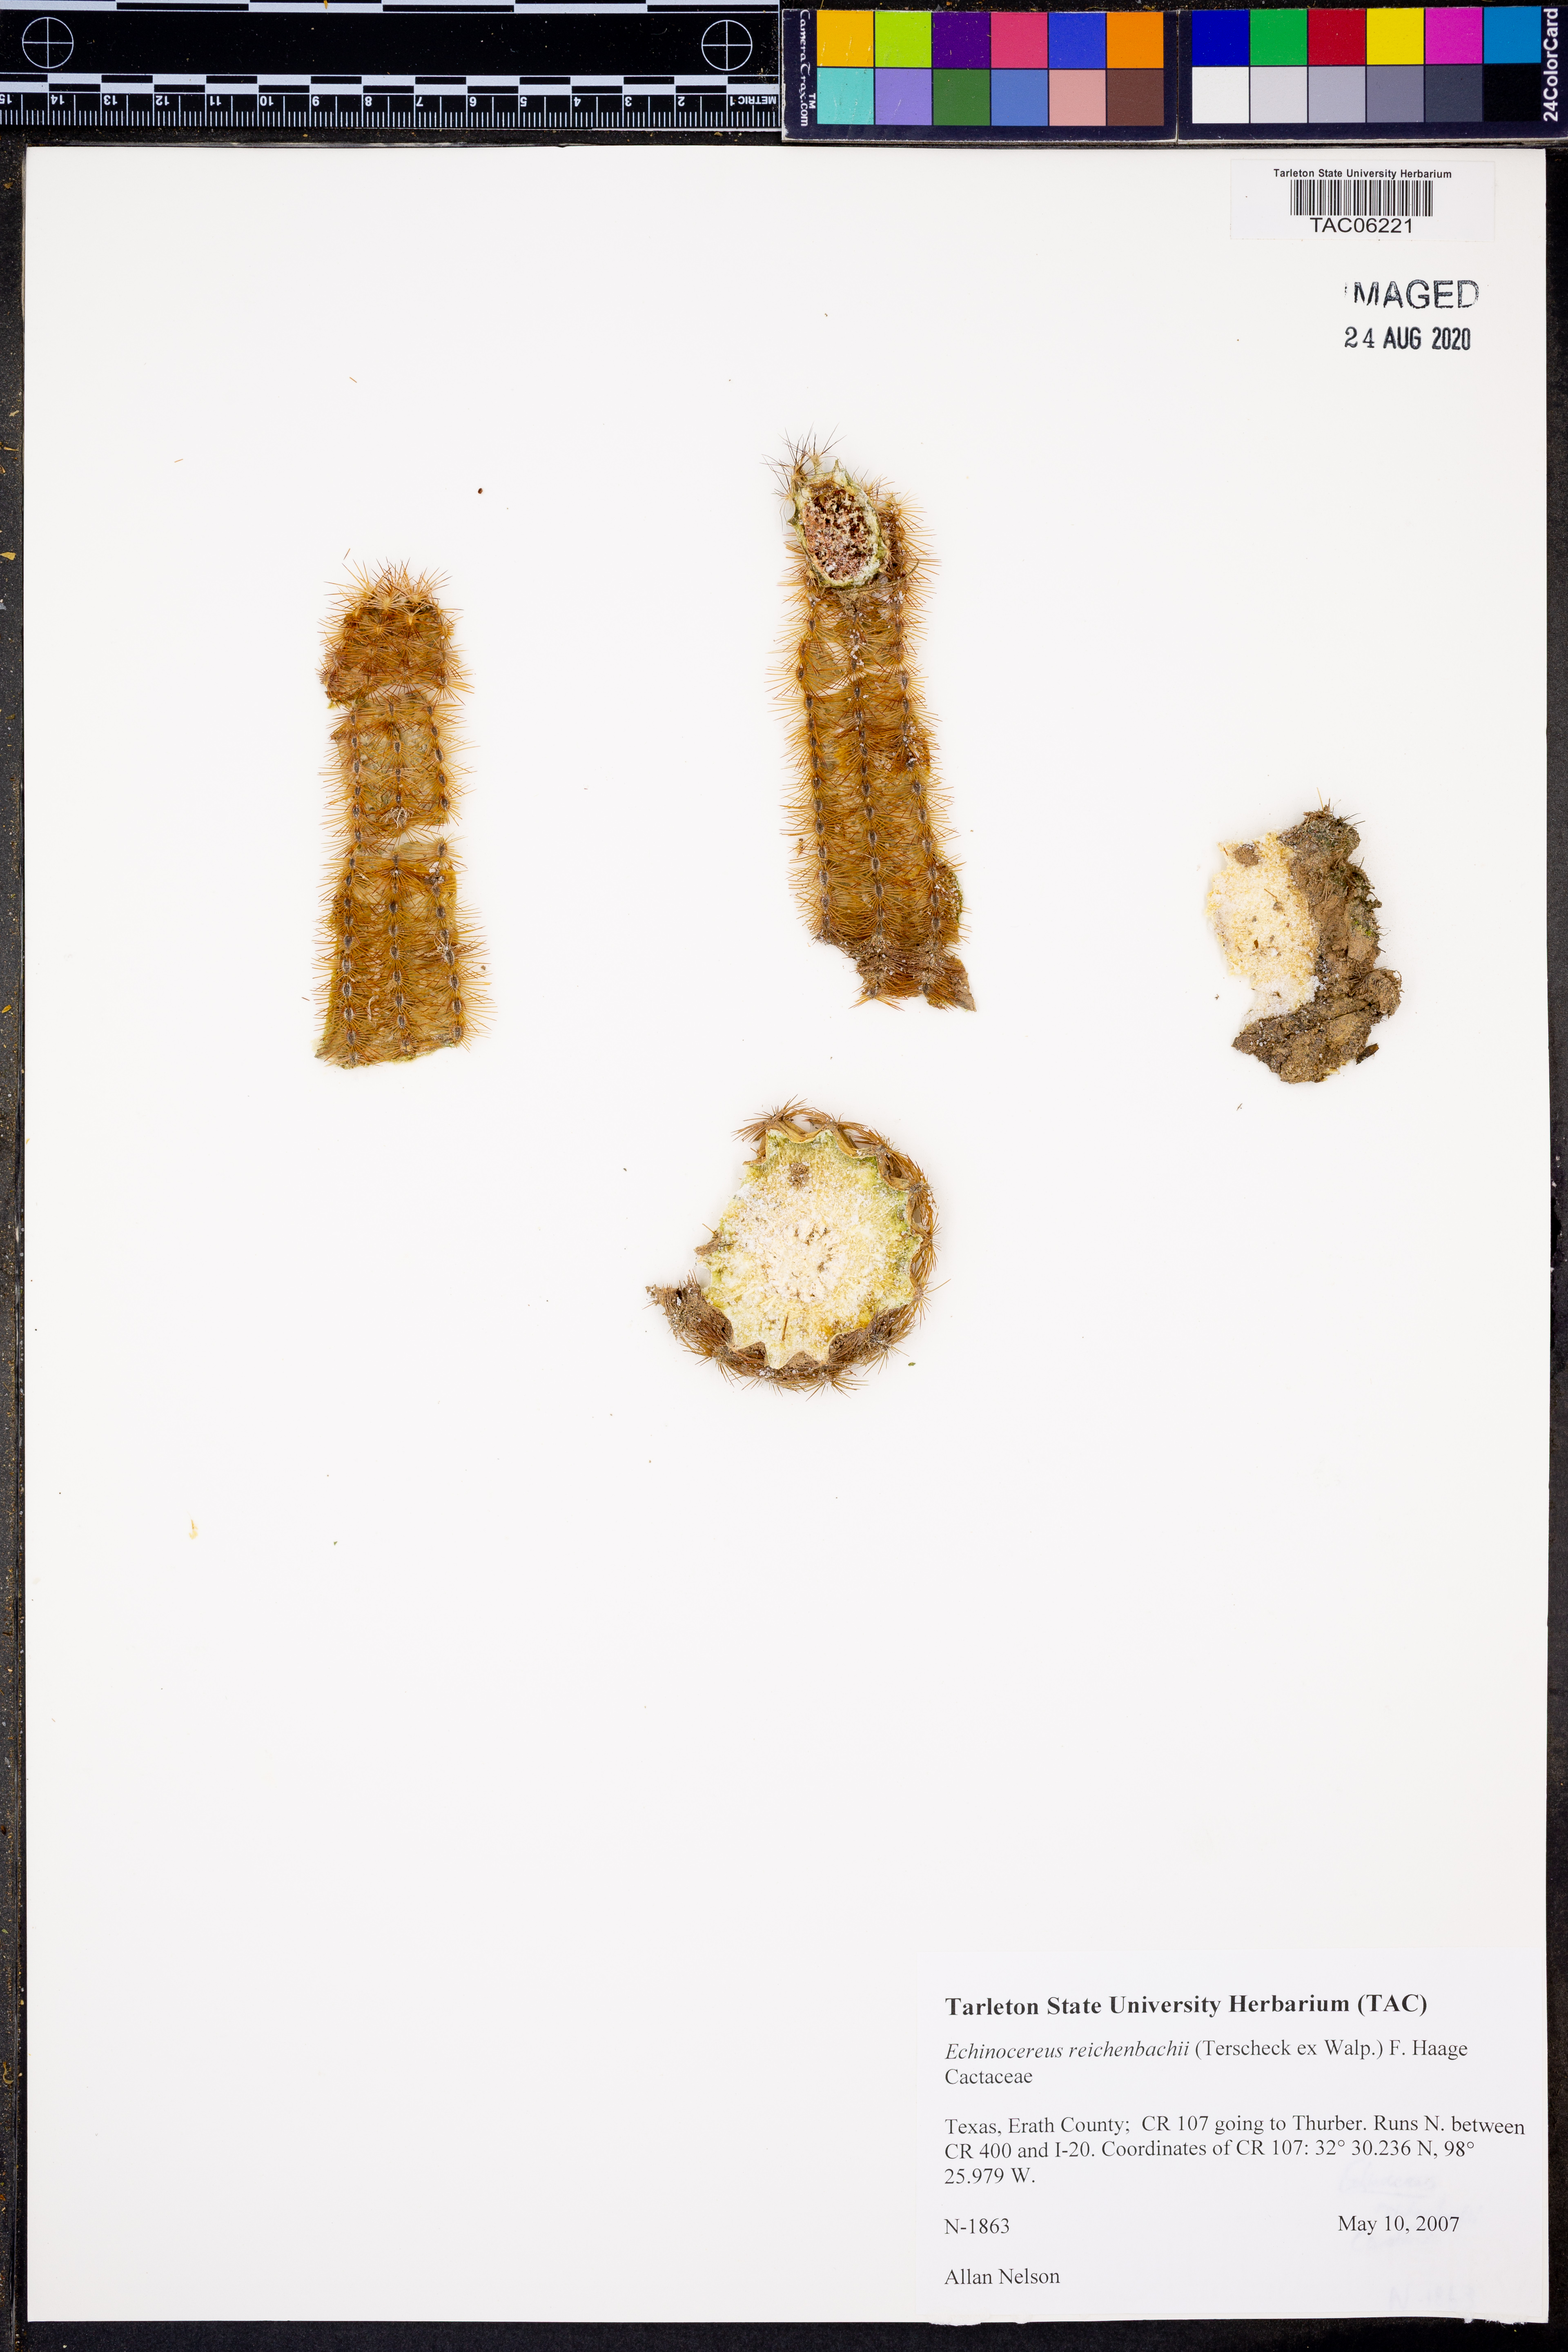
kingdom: Plantae
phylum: Tracheophyta
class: Magnoliopsida
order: Caryophyllales
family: Cactaceae
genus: Echinocereus
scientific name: Echinocereus reichenbachii
